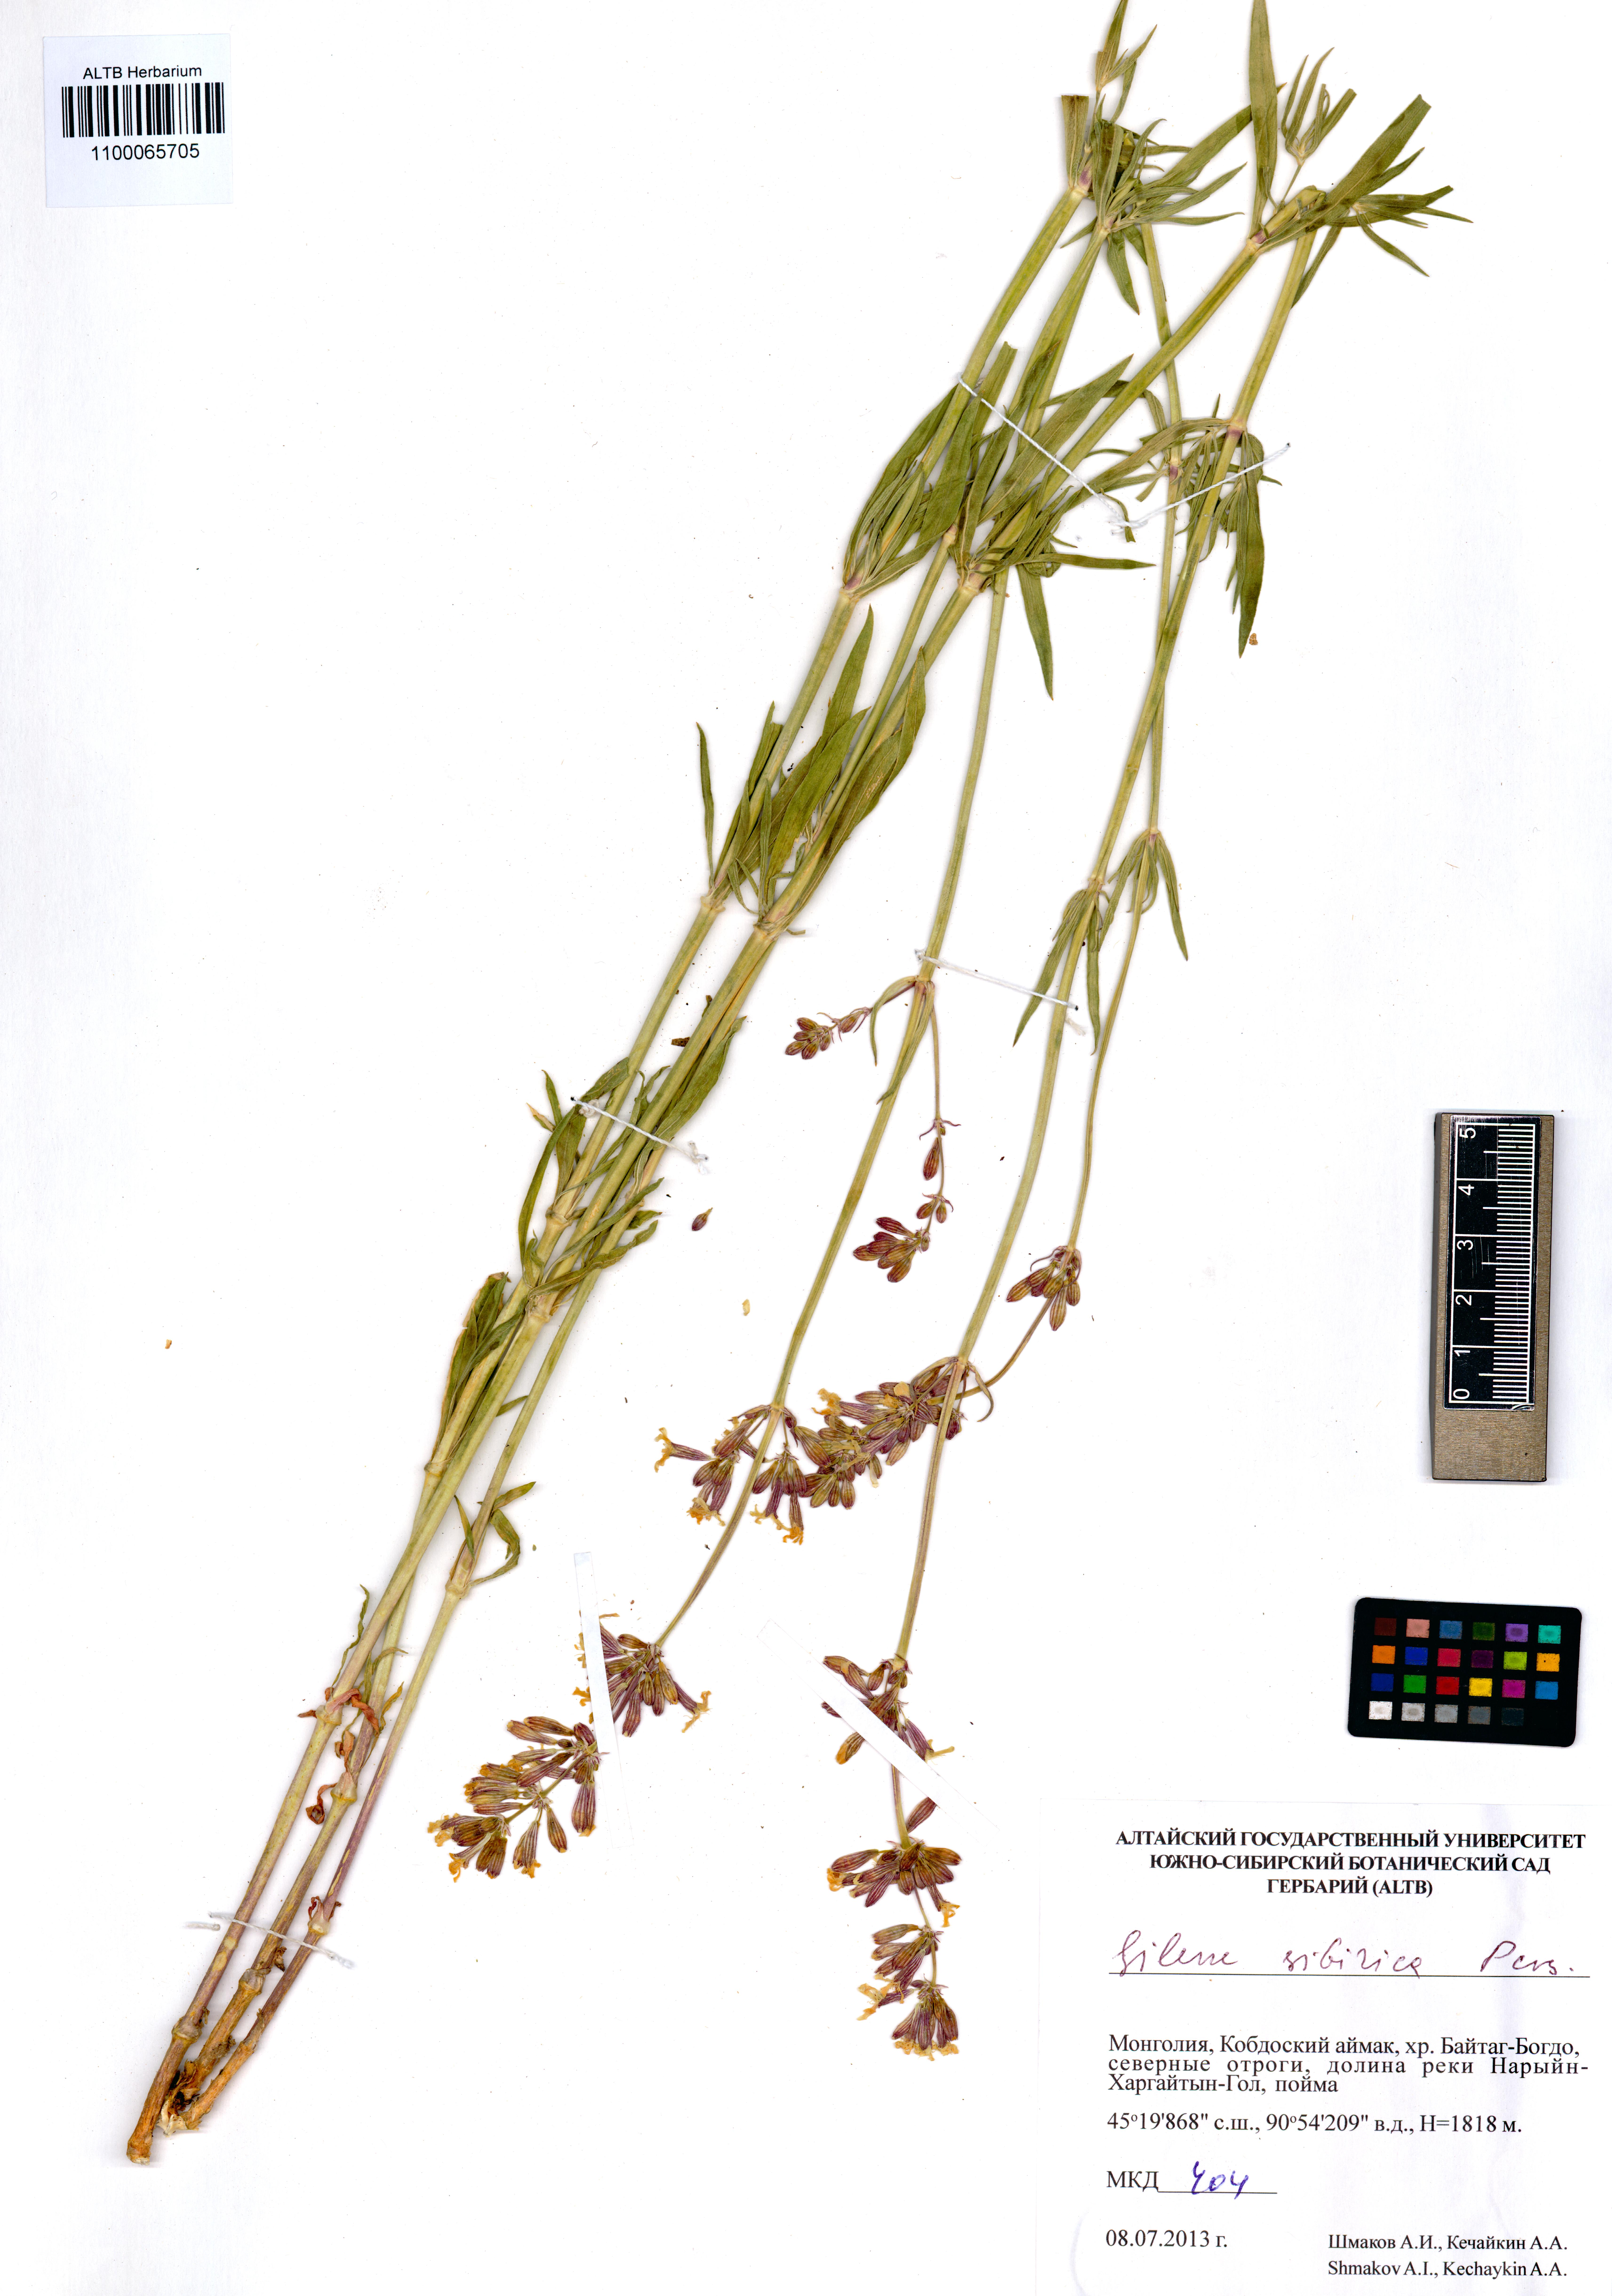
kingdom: Plantae
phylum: Tracheophyta
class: Magnoliopsida
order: Caryophyllales
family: Caryophyllaceae
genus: Silene
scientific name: Silene sibirica
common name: Siberian catchfly
